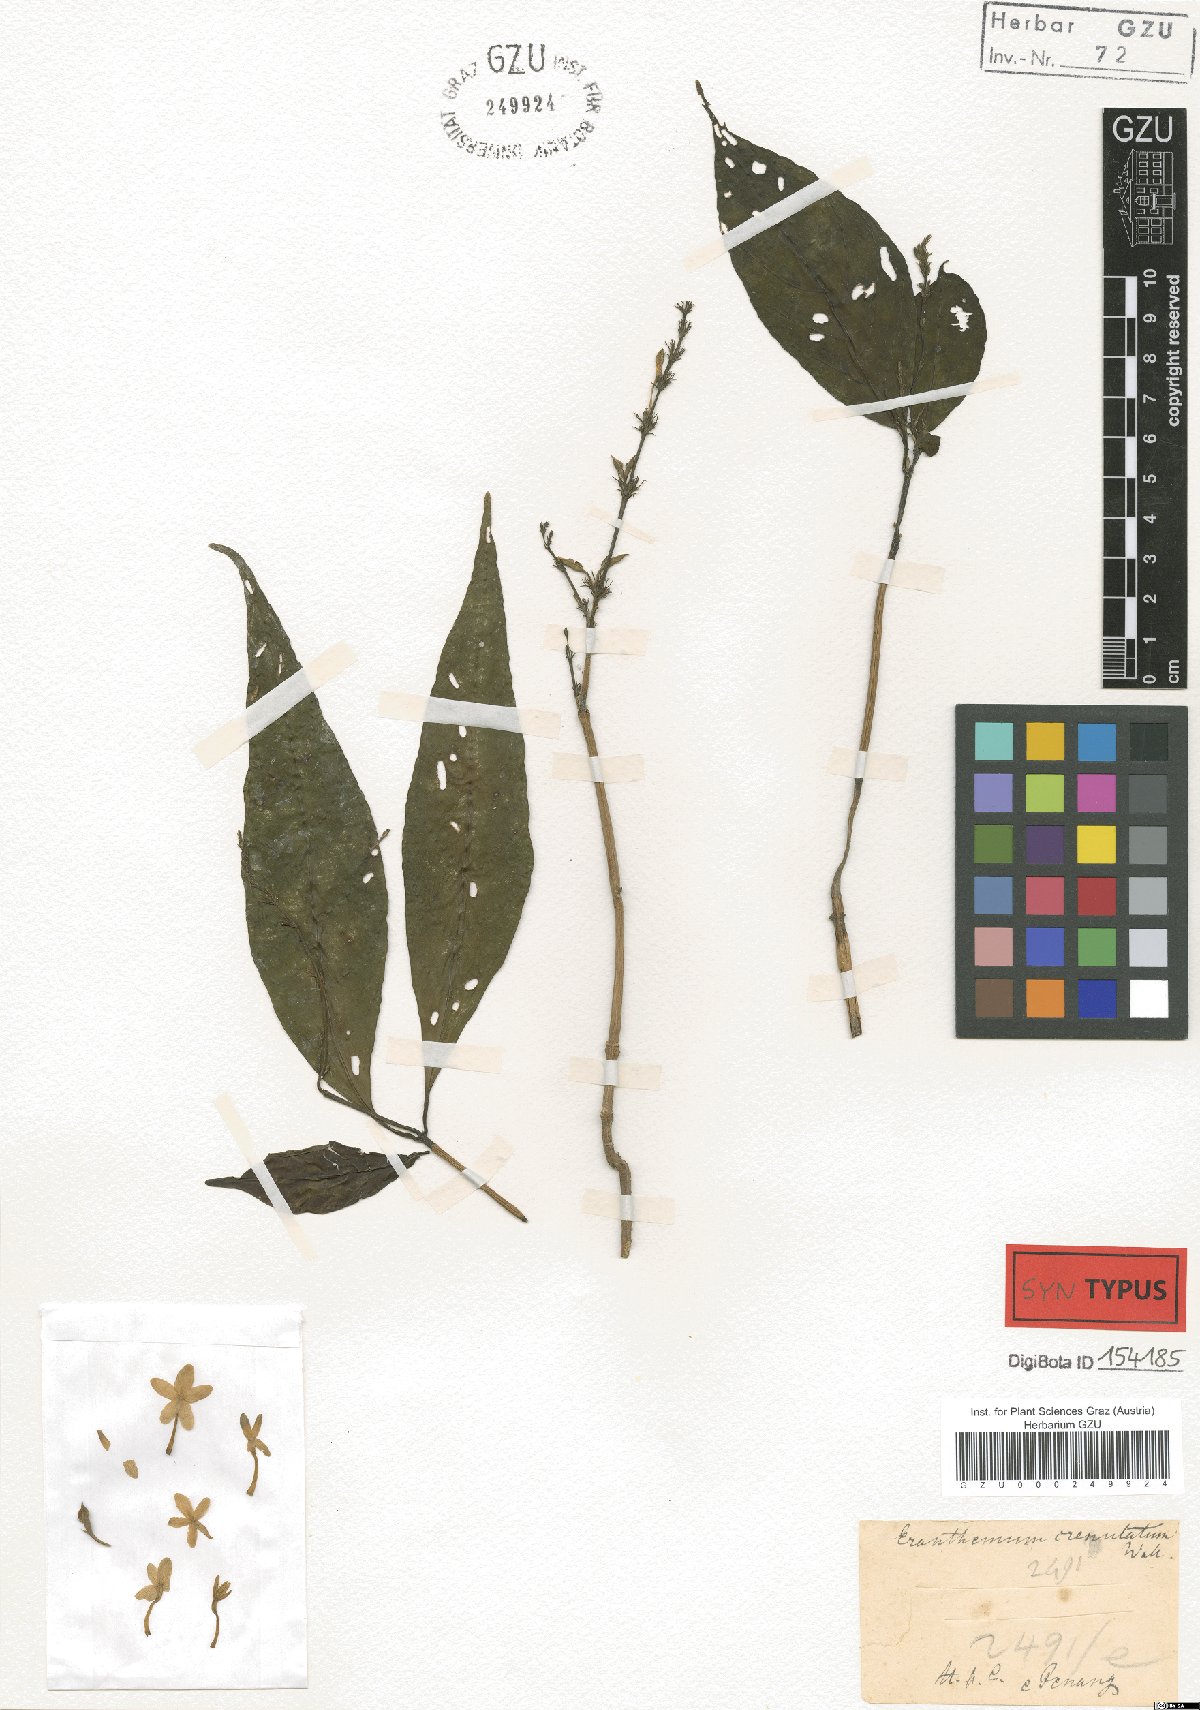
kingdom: Plantae
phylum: Tracheophyta
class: Magnoliopsida
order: Lamiales
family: Acanthaceae
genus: Pseuderanthemum
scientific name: Pseuderanthemum crenulatum
